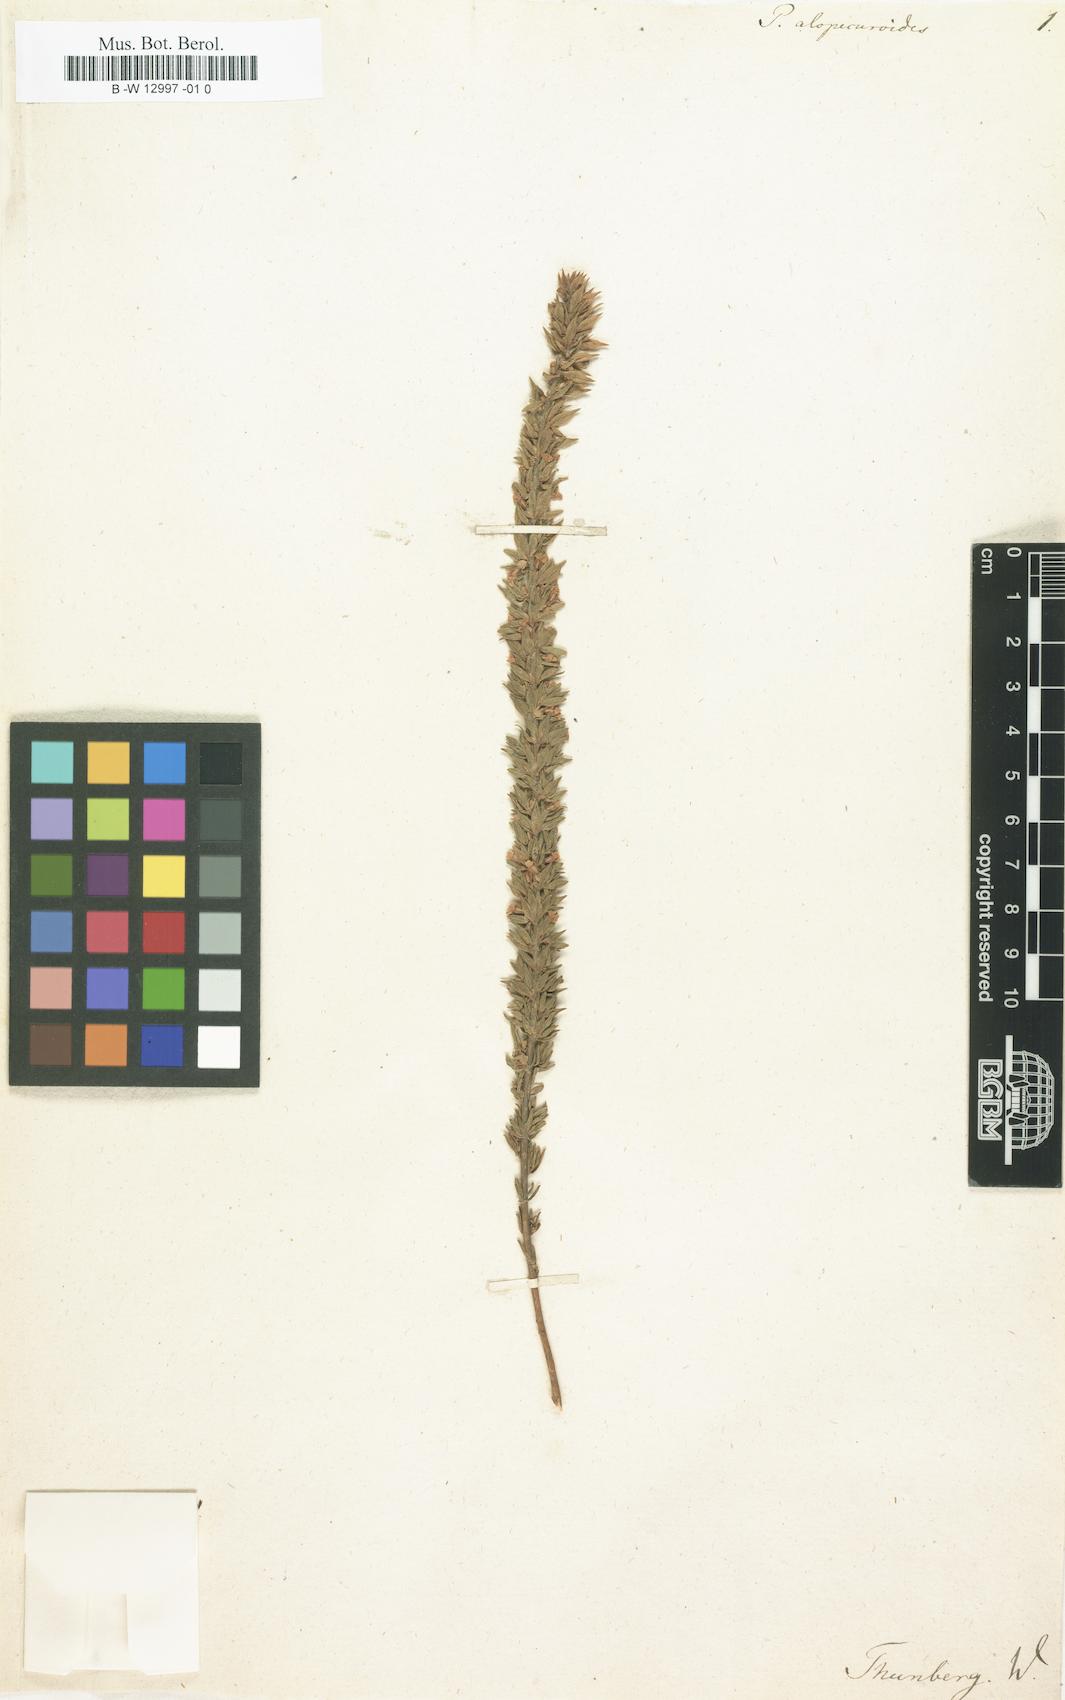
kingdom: Plantae
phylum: Tracheophyta
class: Magnoliopsida
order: Fabales
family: Polygalaceae
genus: Muraltia
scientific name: Muraltia alopecuroides
